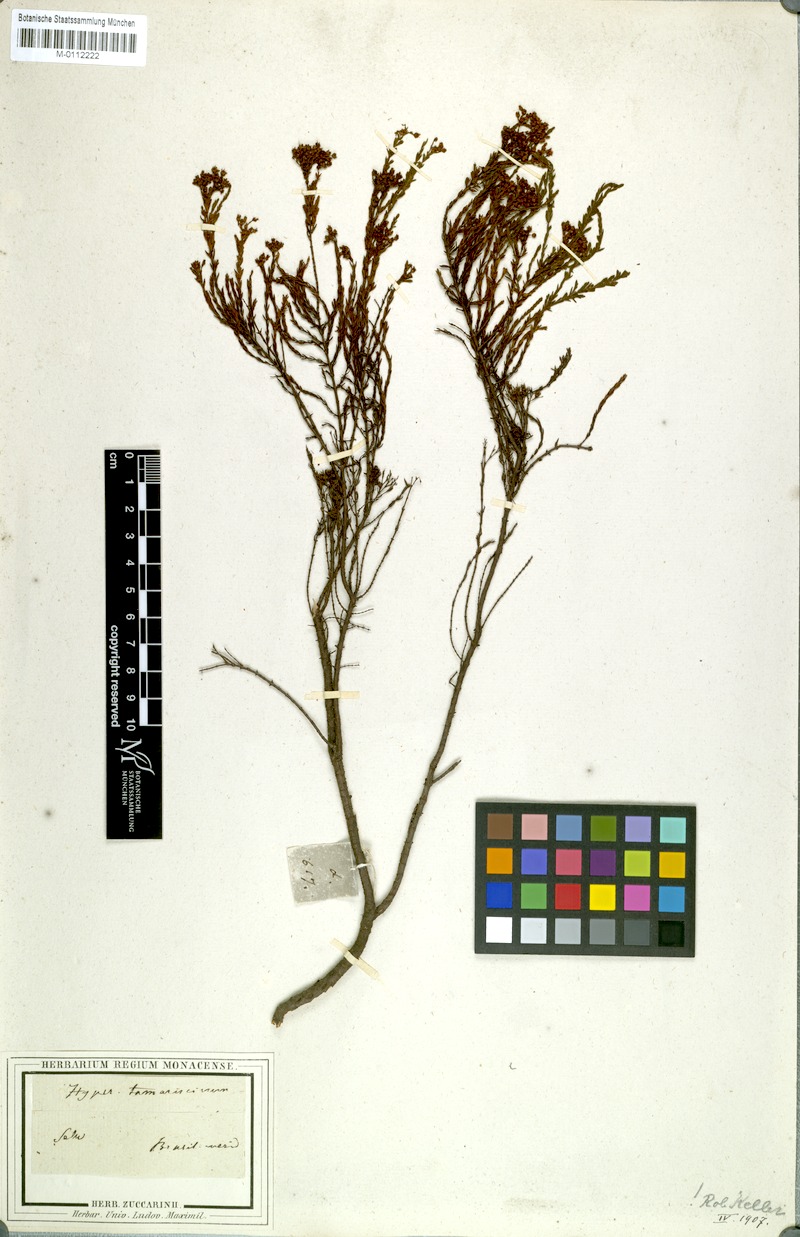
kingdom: Plantae
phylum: Tracheophyta
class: Magnoliopsida
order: Malpighiales
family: Hypericaceae
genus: Hypericum
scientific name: Hypericum myrianthum
